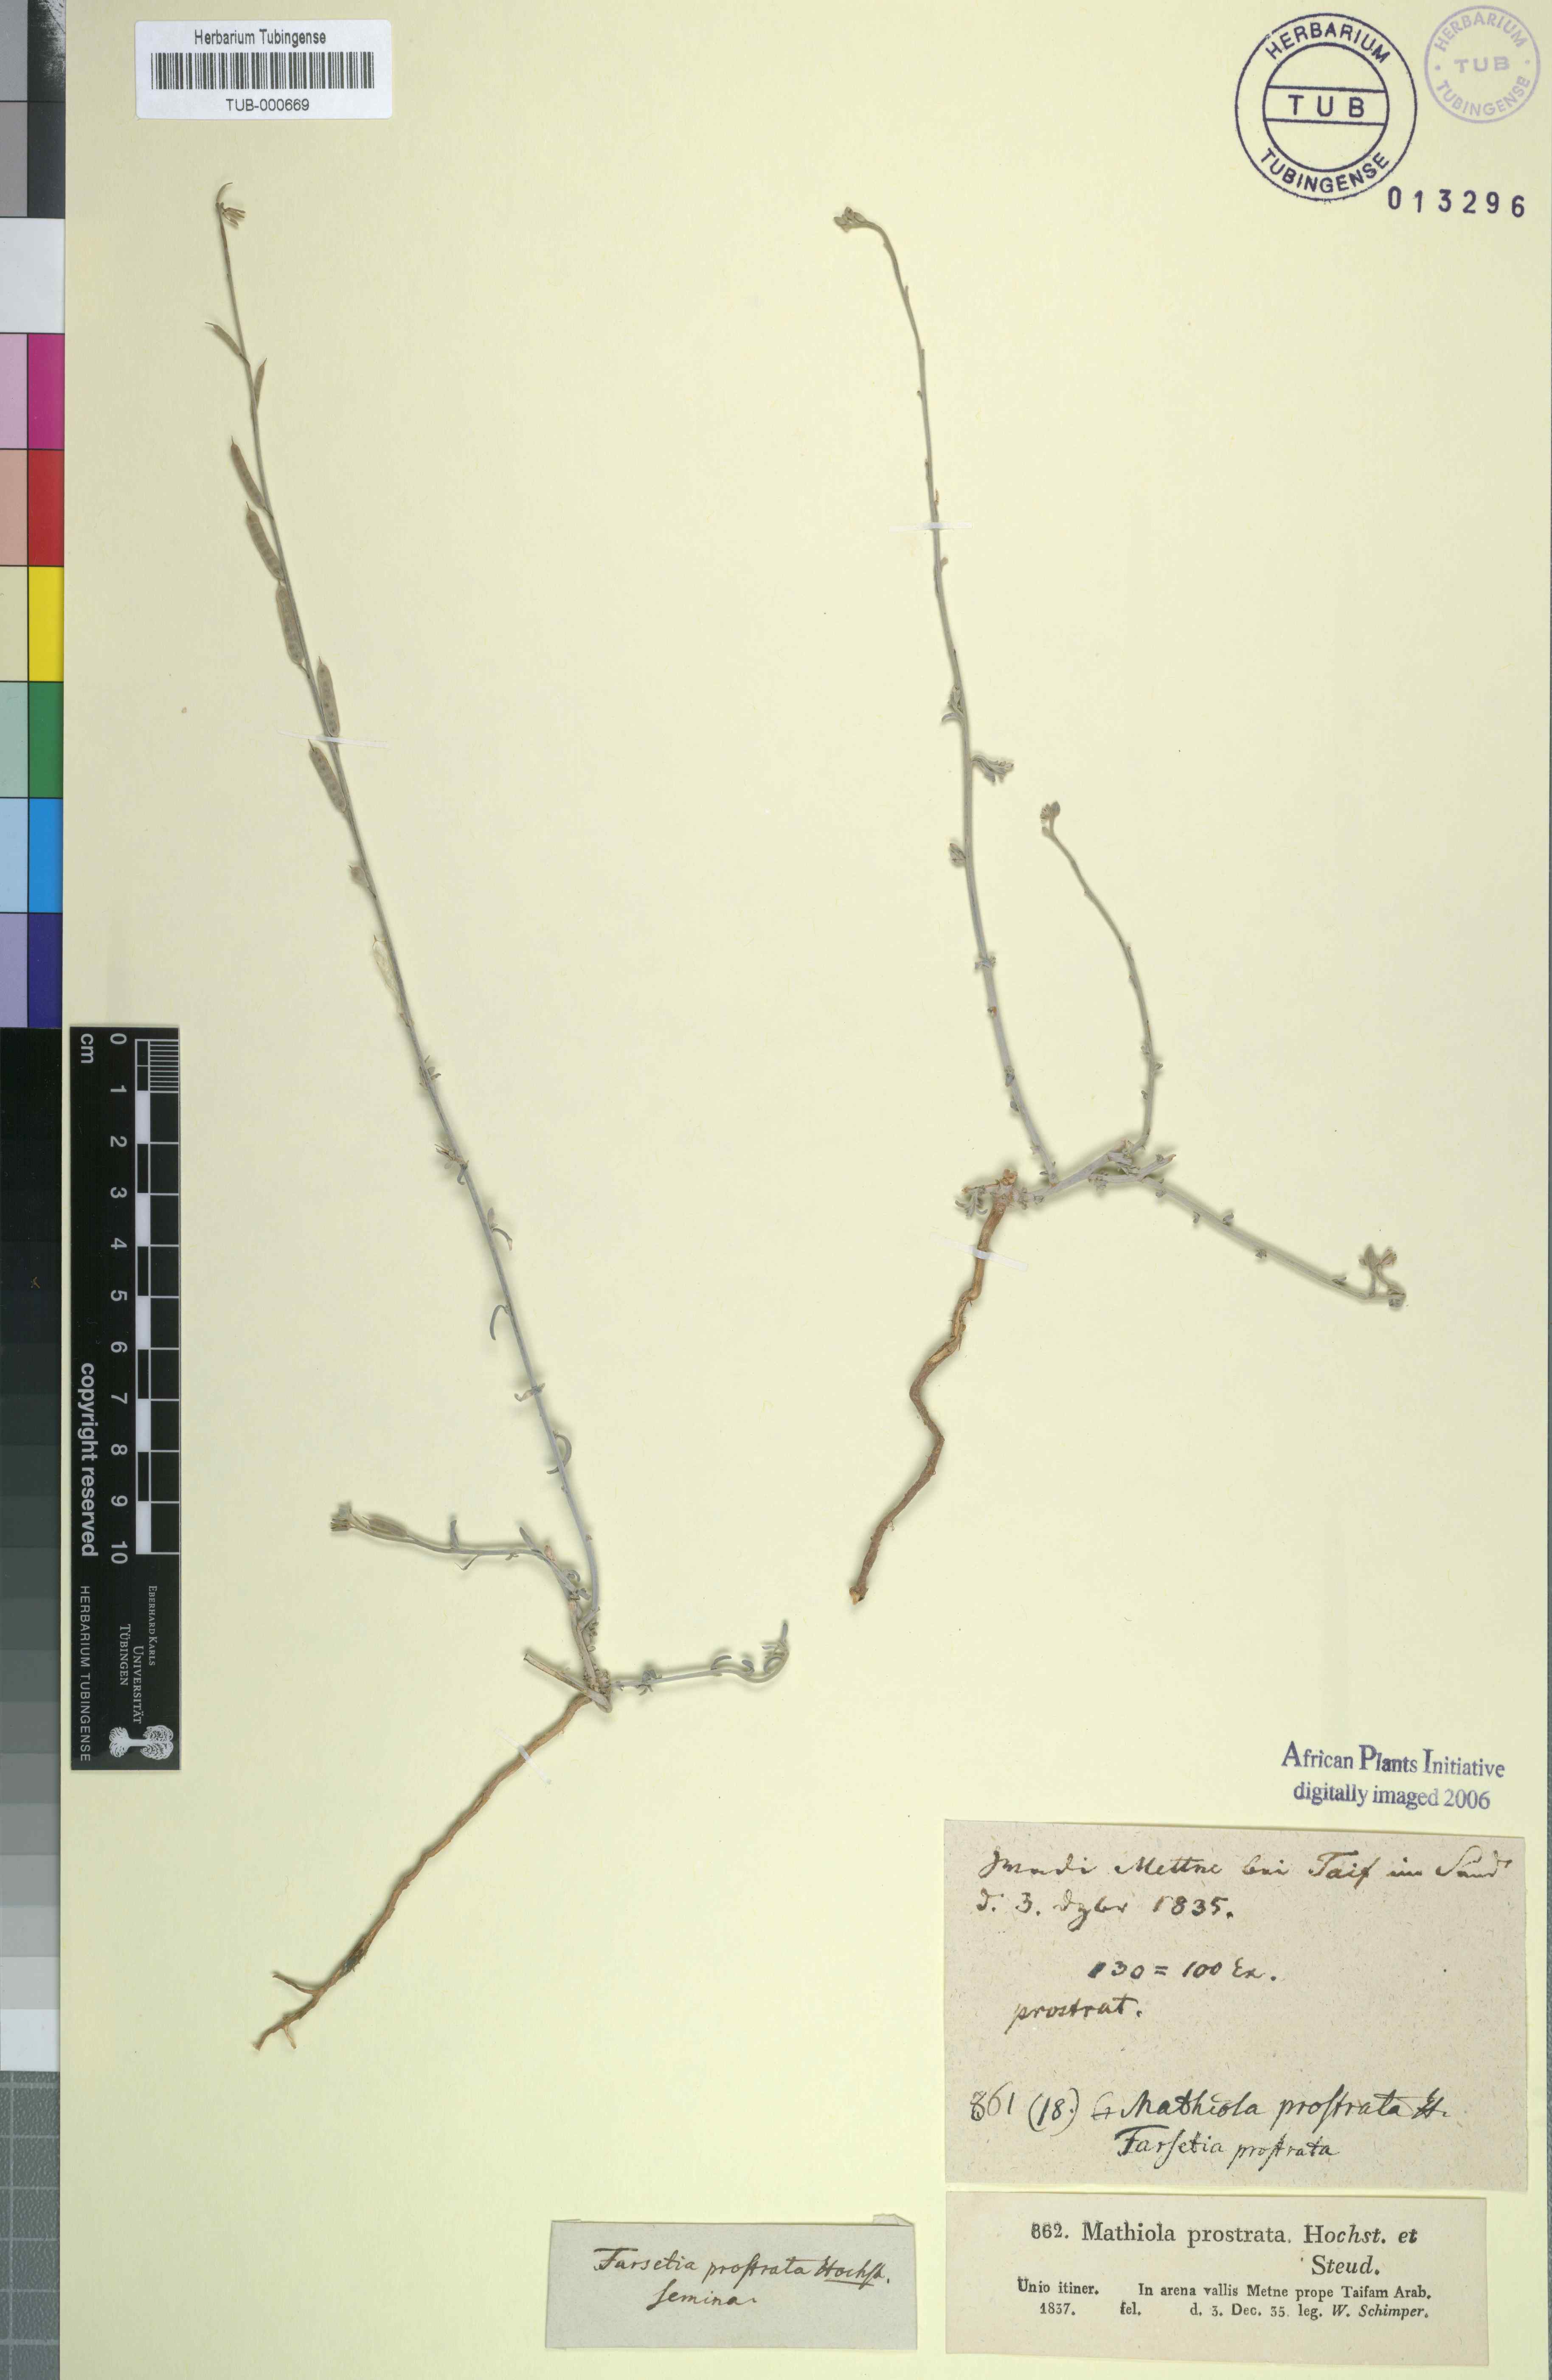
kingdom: Plantae
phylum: Tracheophyta
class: Magnoliopsida
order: Brassicales
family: Brassicaceae
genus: Farsetia
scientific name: Farsetia stylosa
